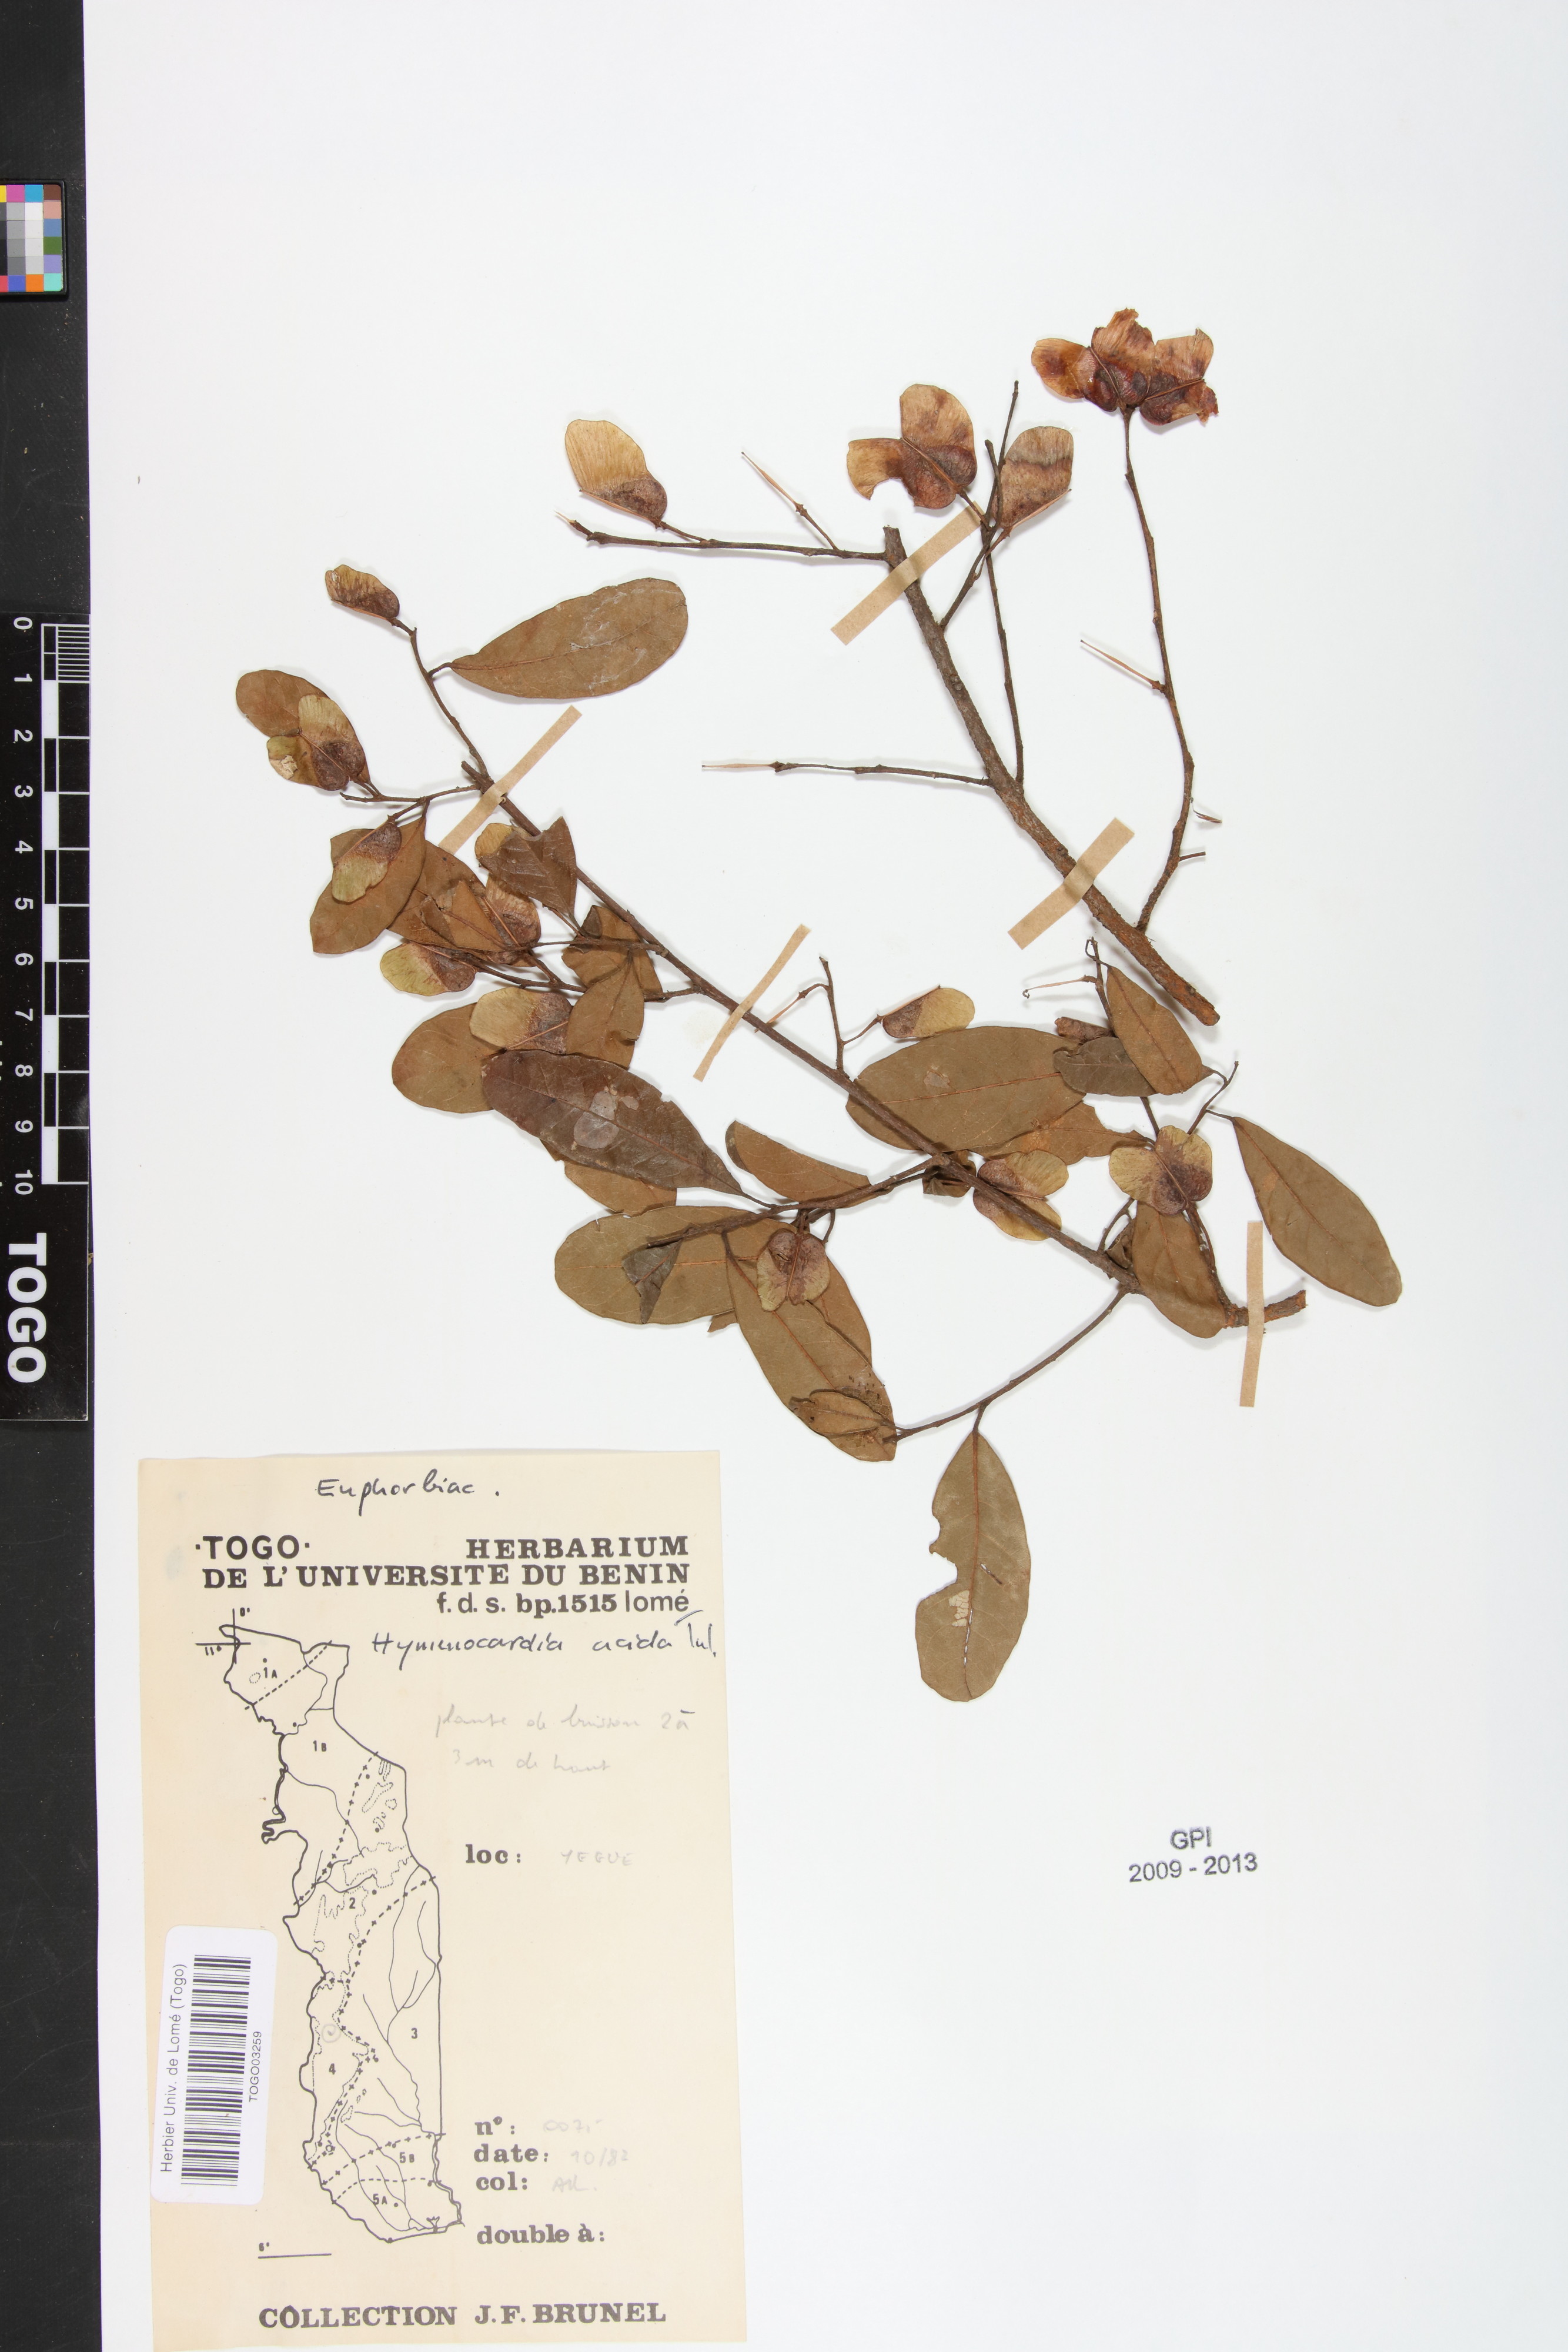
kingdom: Plantae
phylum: Tracheophyta
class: Magnoliopsida
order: Malpighiales
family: Phyllanthaceae
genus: Hymenocardia
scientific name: Hymenocardia acida
